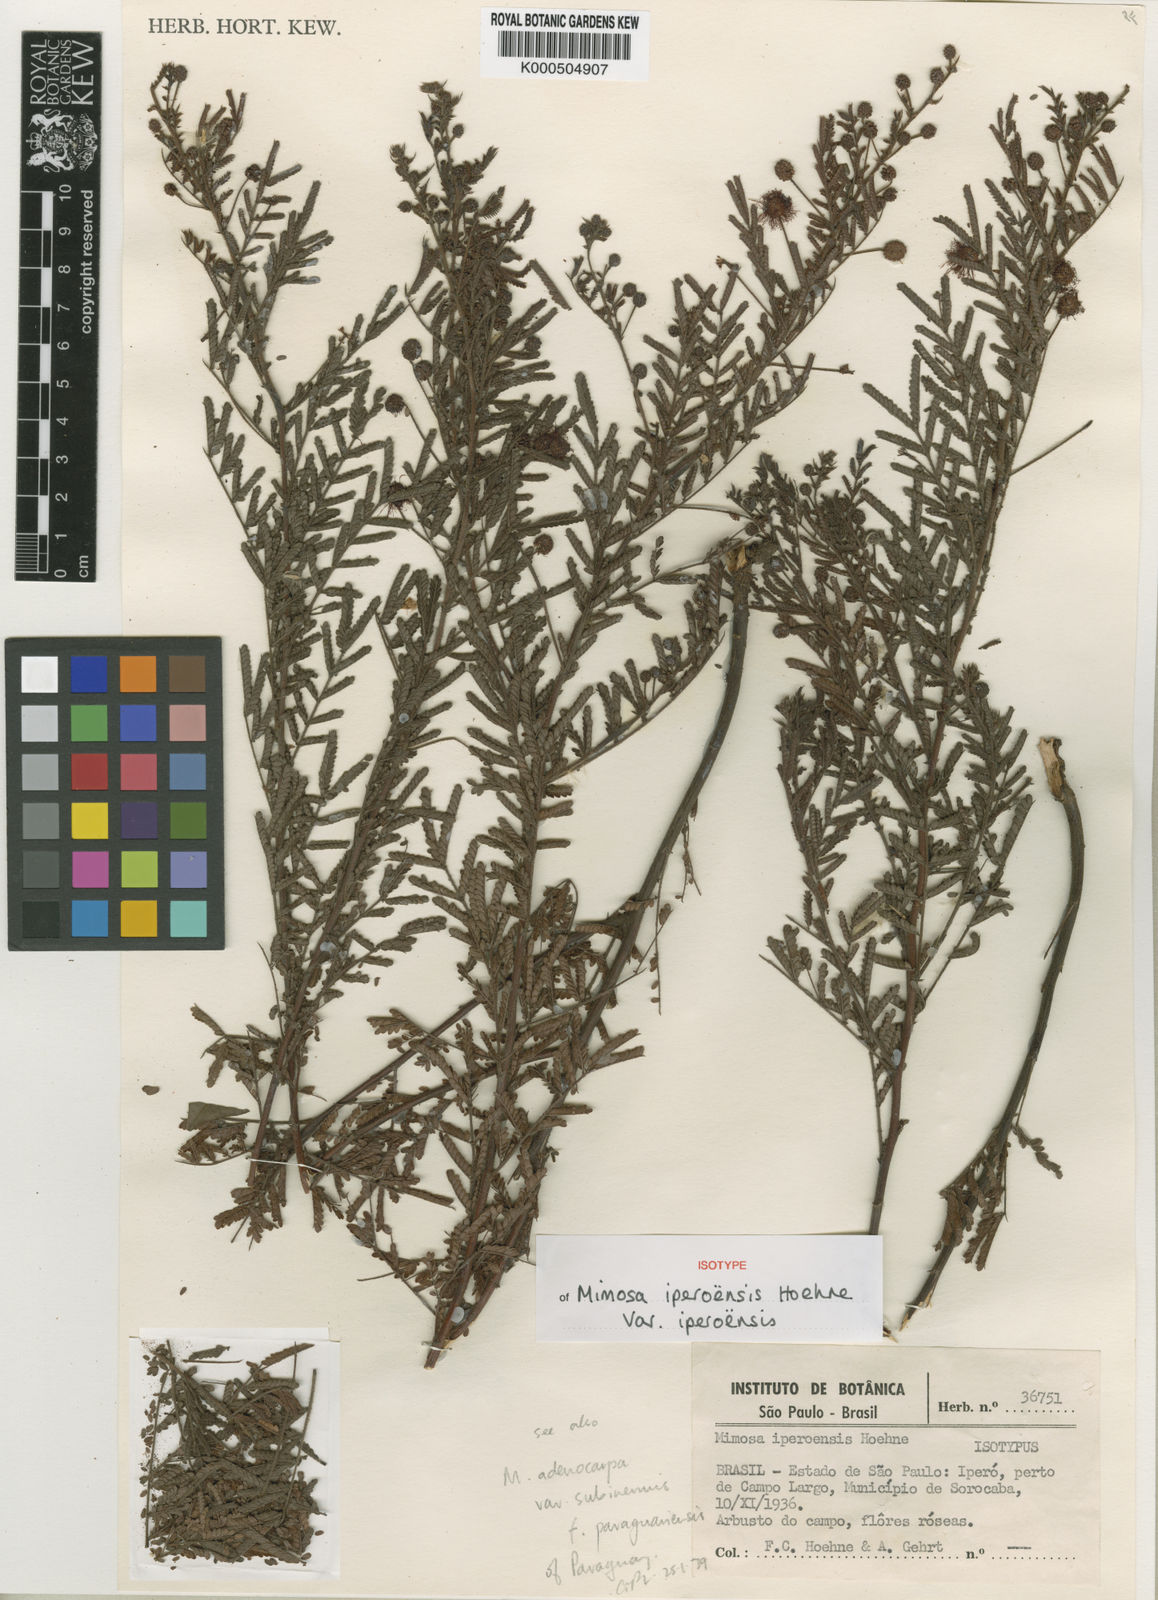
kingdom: Plantae
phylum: Tracheophyta
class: Magnoliopsida
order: Fabales
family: Fabaceae
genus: Mimosa
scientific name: Mimosa iperoensis
